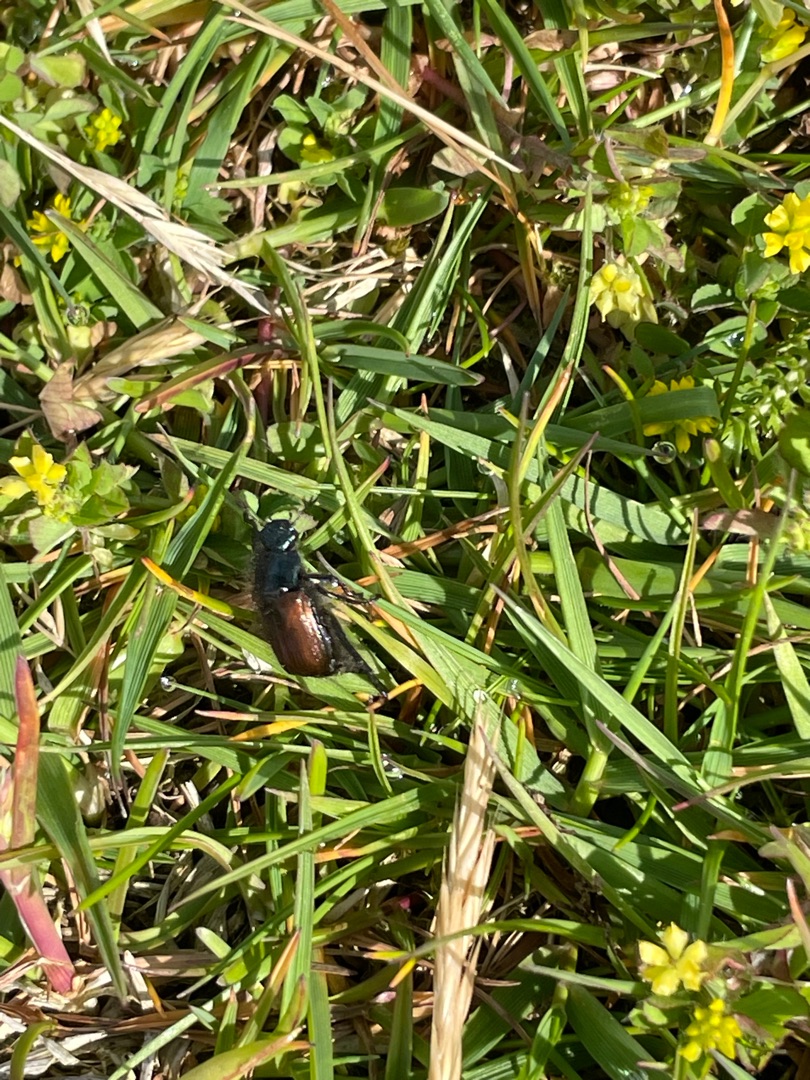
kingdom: Animalia
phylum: Arthropoda
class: Insecta
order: Coleoptera
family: Scarabaeidae
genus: Phyllopertha
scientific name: Phyllopertha horticola
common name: Gåsebille
